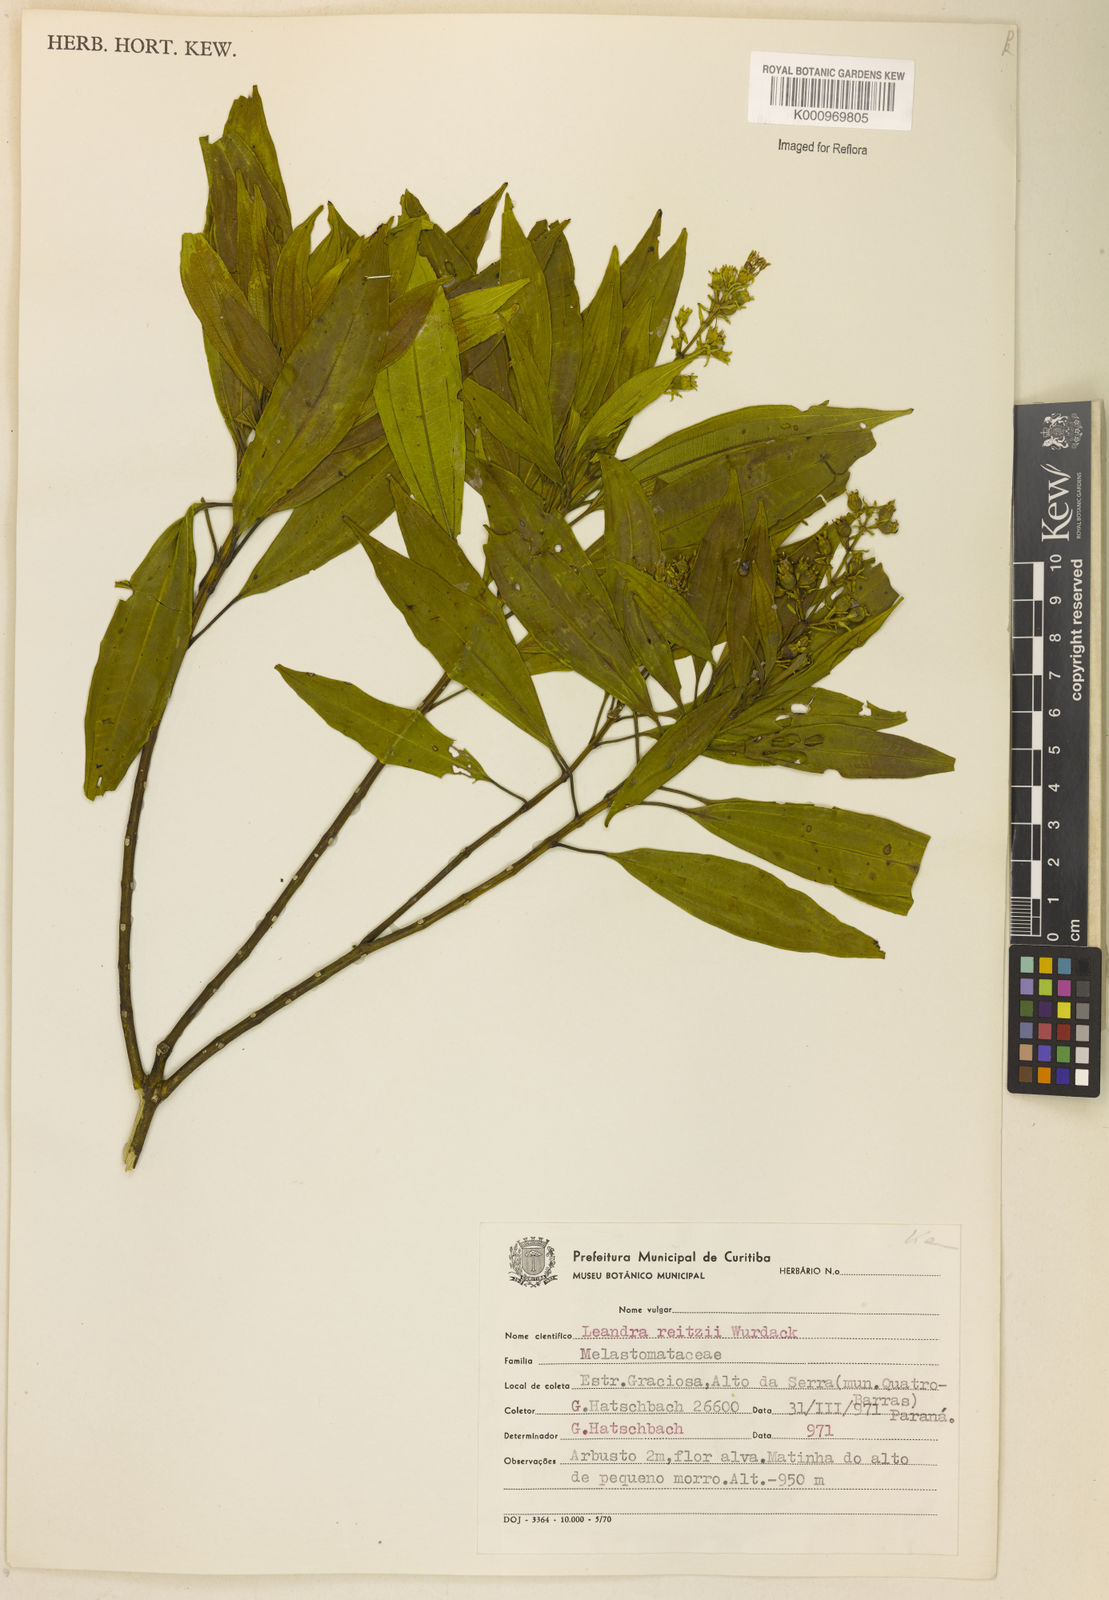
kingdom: Plantae
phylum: Tracheophyta
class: Magnoliopsida
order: Myrtales
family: Melastomataceae
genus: Miconia
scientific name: Miconia reitzii
